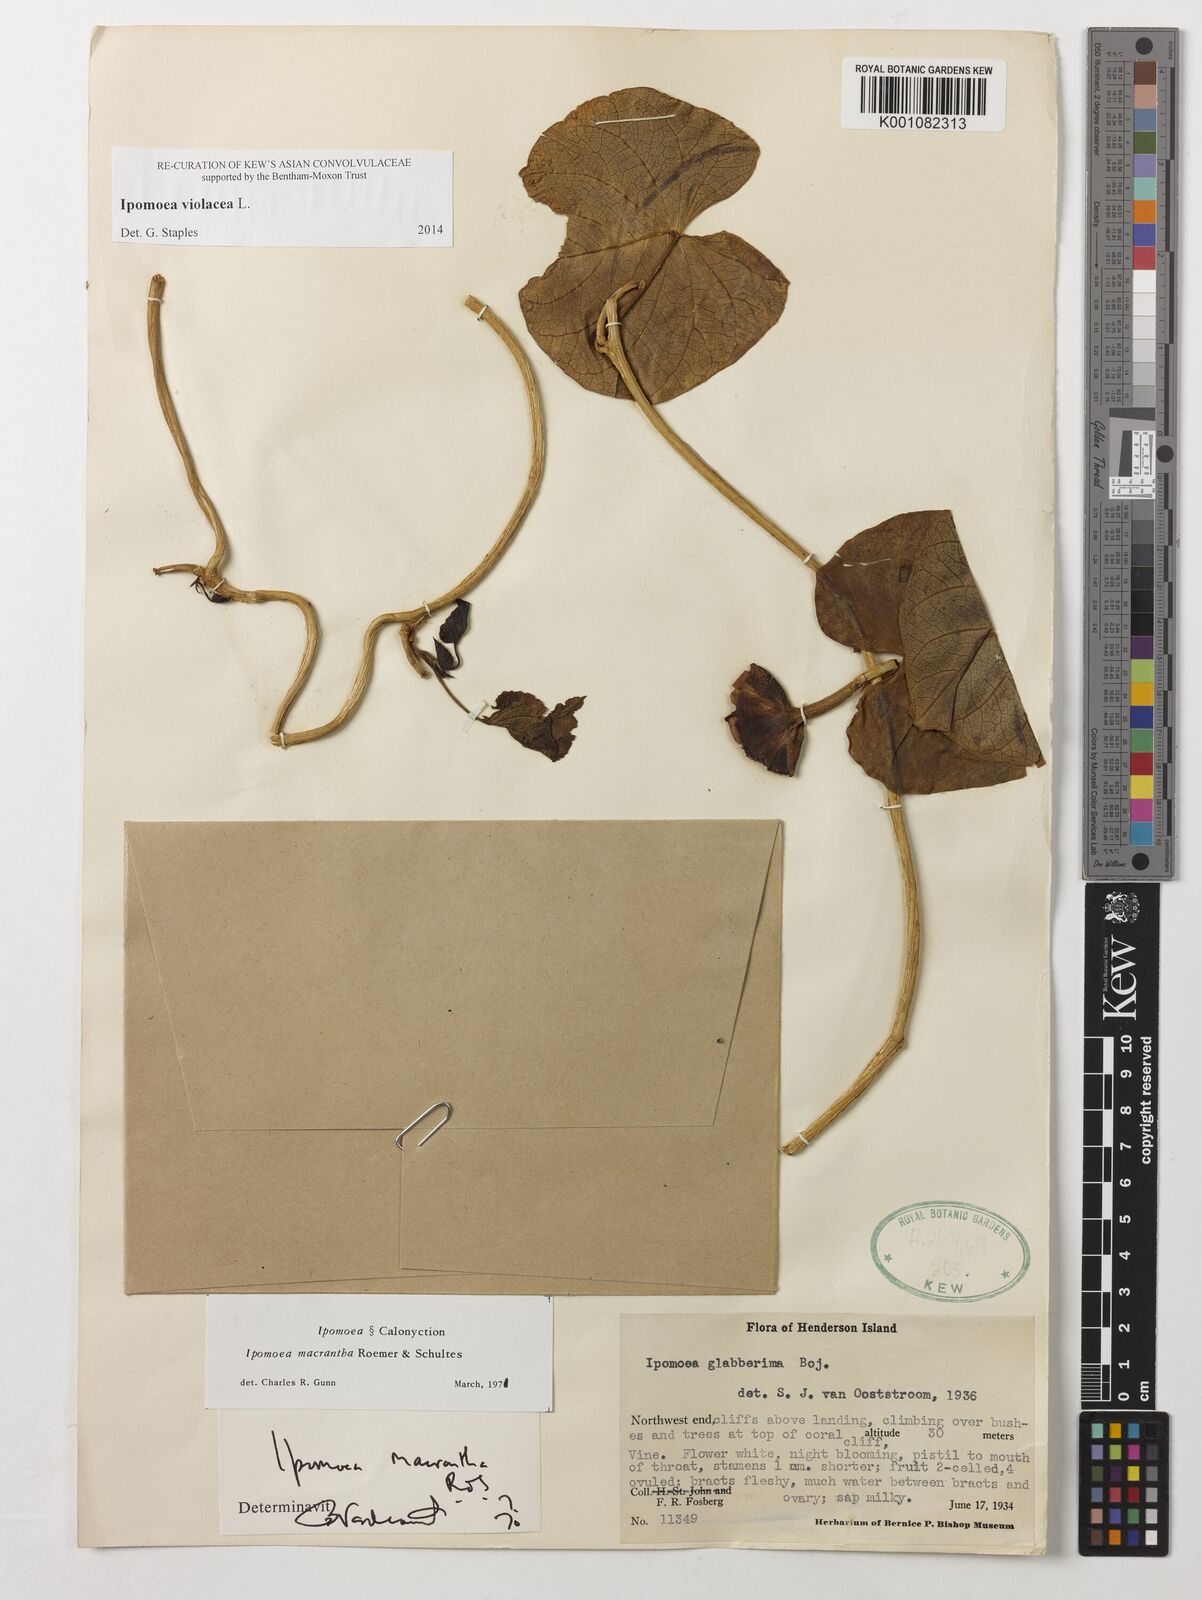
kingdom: Plantae
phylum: Tracheophyta
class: Magnoliopsida
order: Solanales
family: Convolvulaceae
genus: Ipomoea
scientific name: Ipomoea violacea
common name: Beach moonflower
